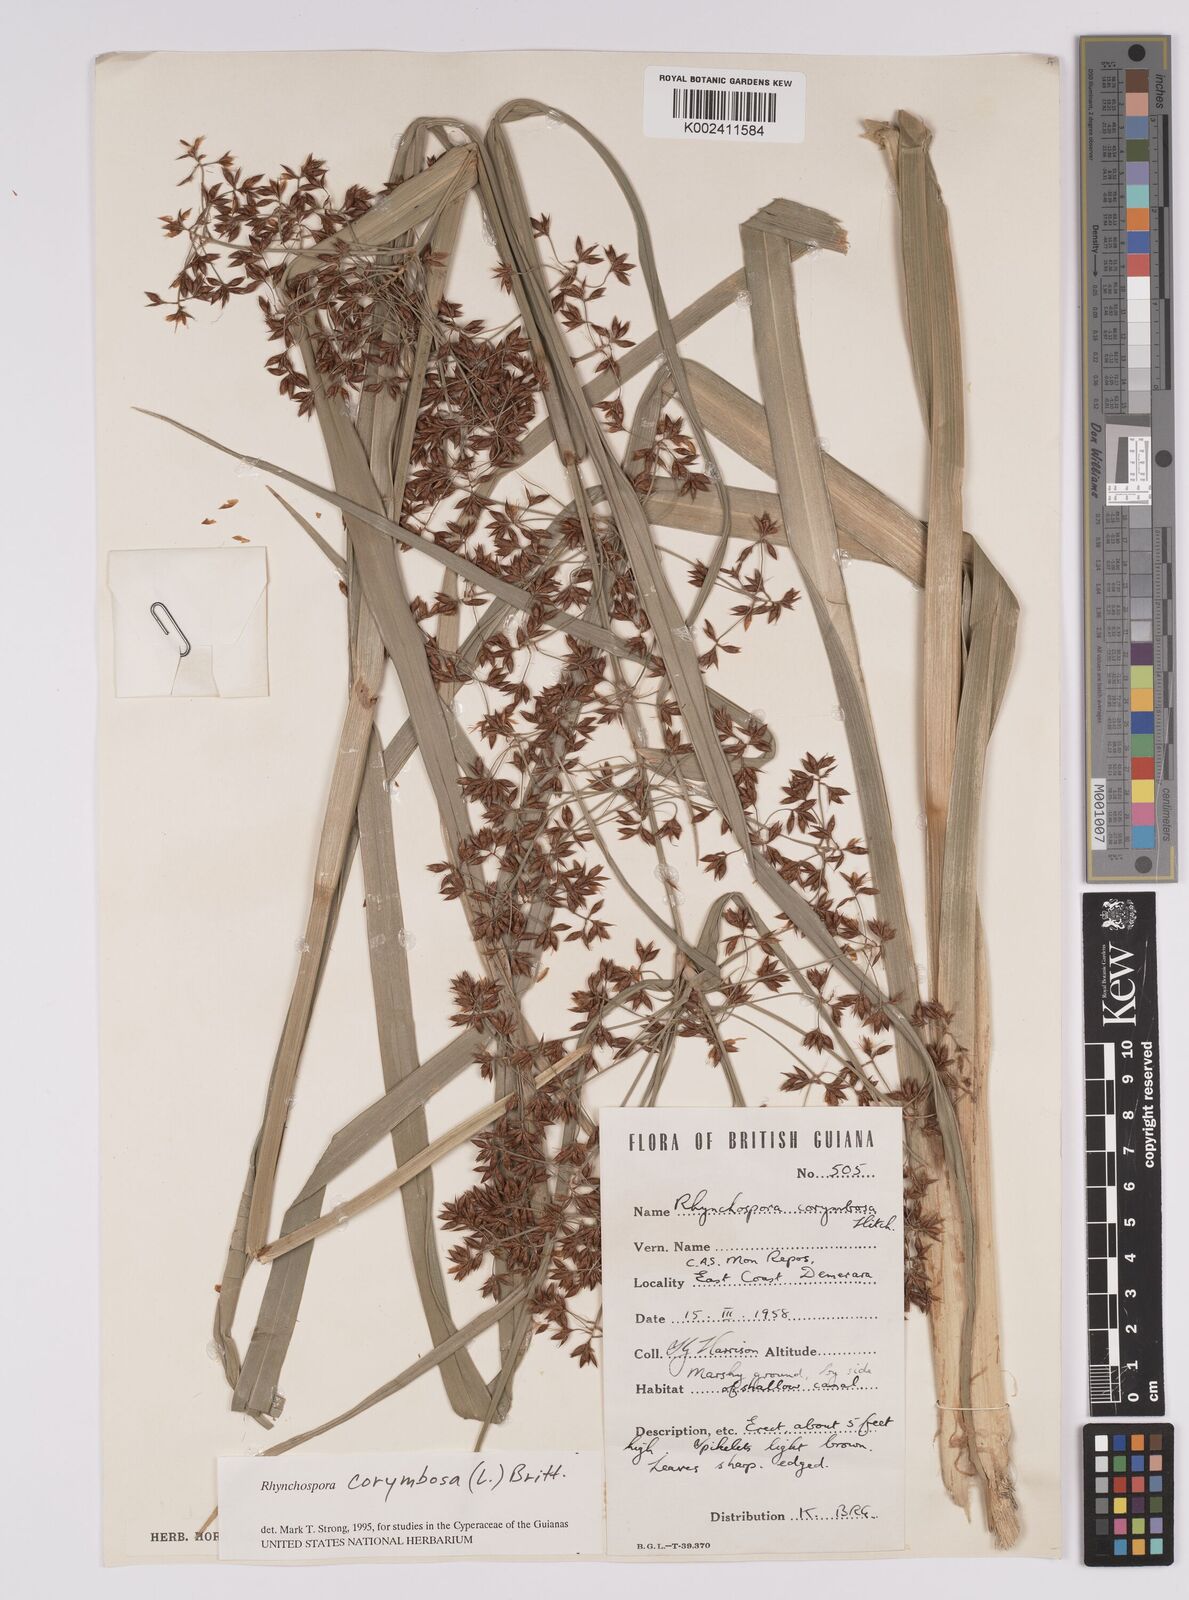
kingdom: Plantae
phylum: Tracheophyta
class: Liliopsida
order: Poales
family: Cyperaceae
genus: Rhynchospora
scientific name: Rhynchospora corymbosa
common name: Golden beak sedge
